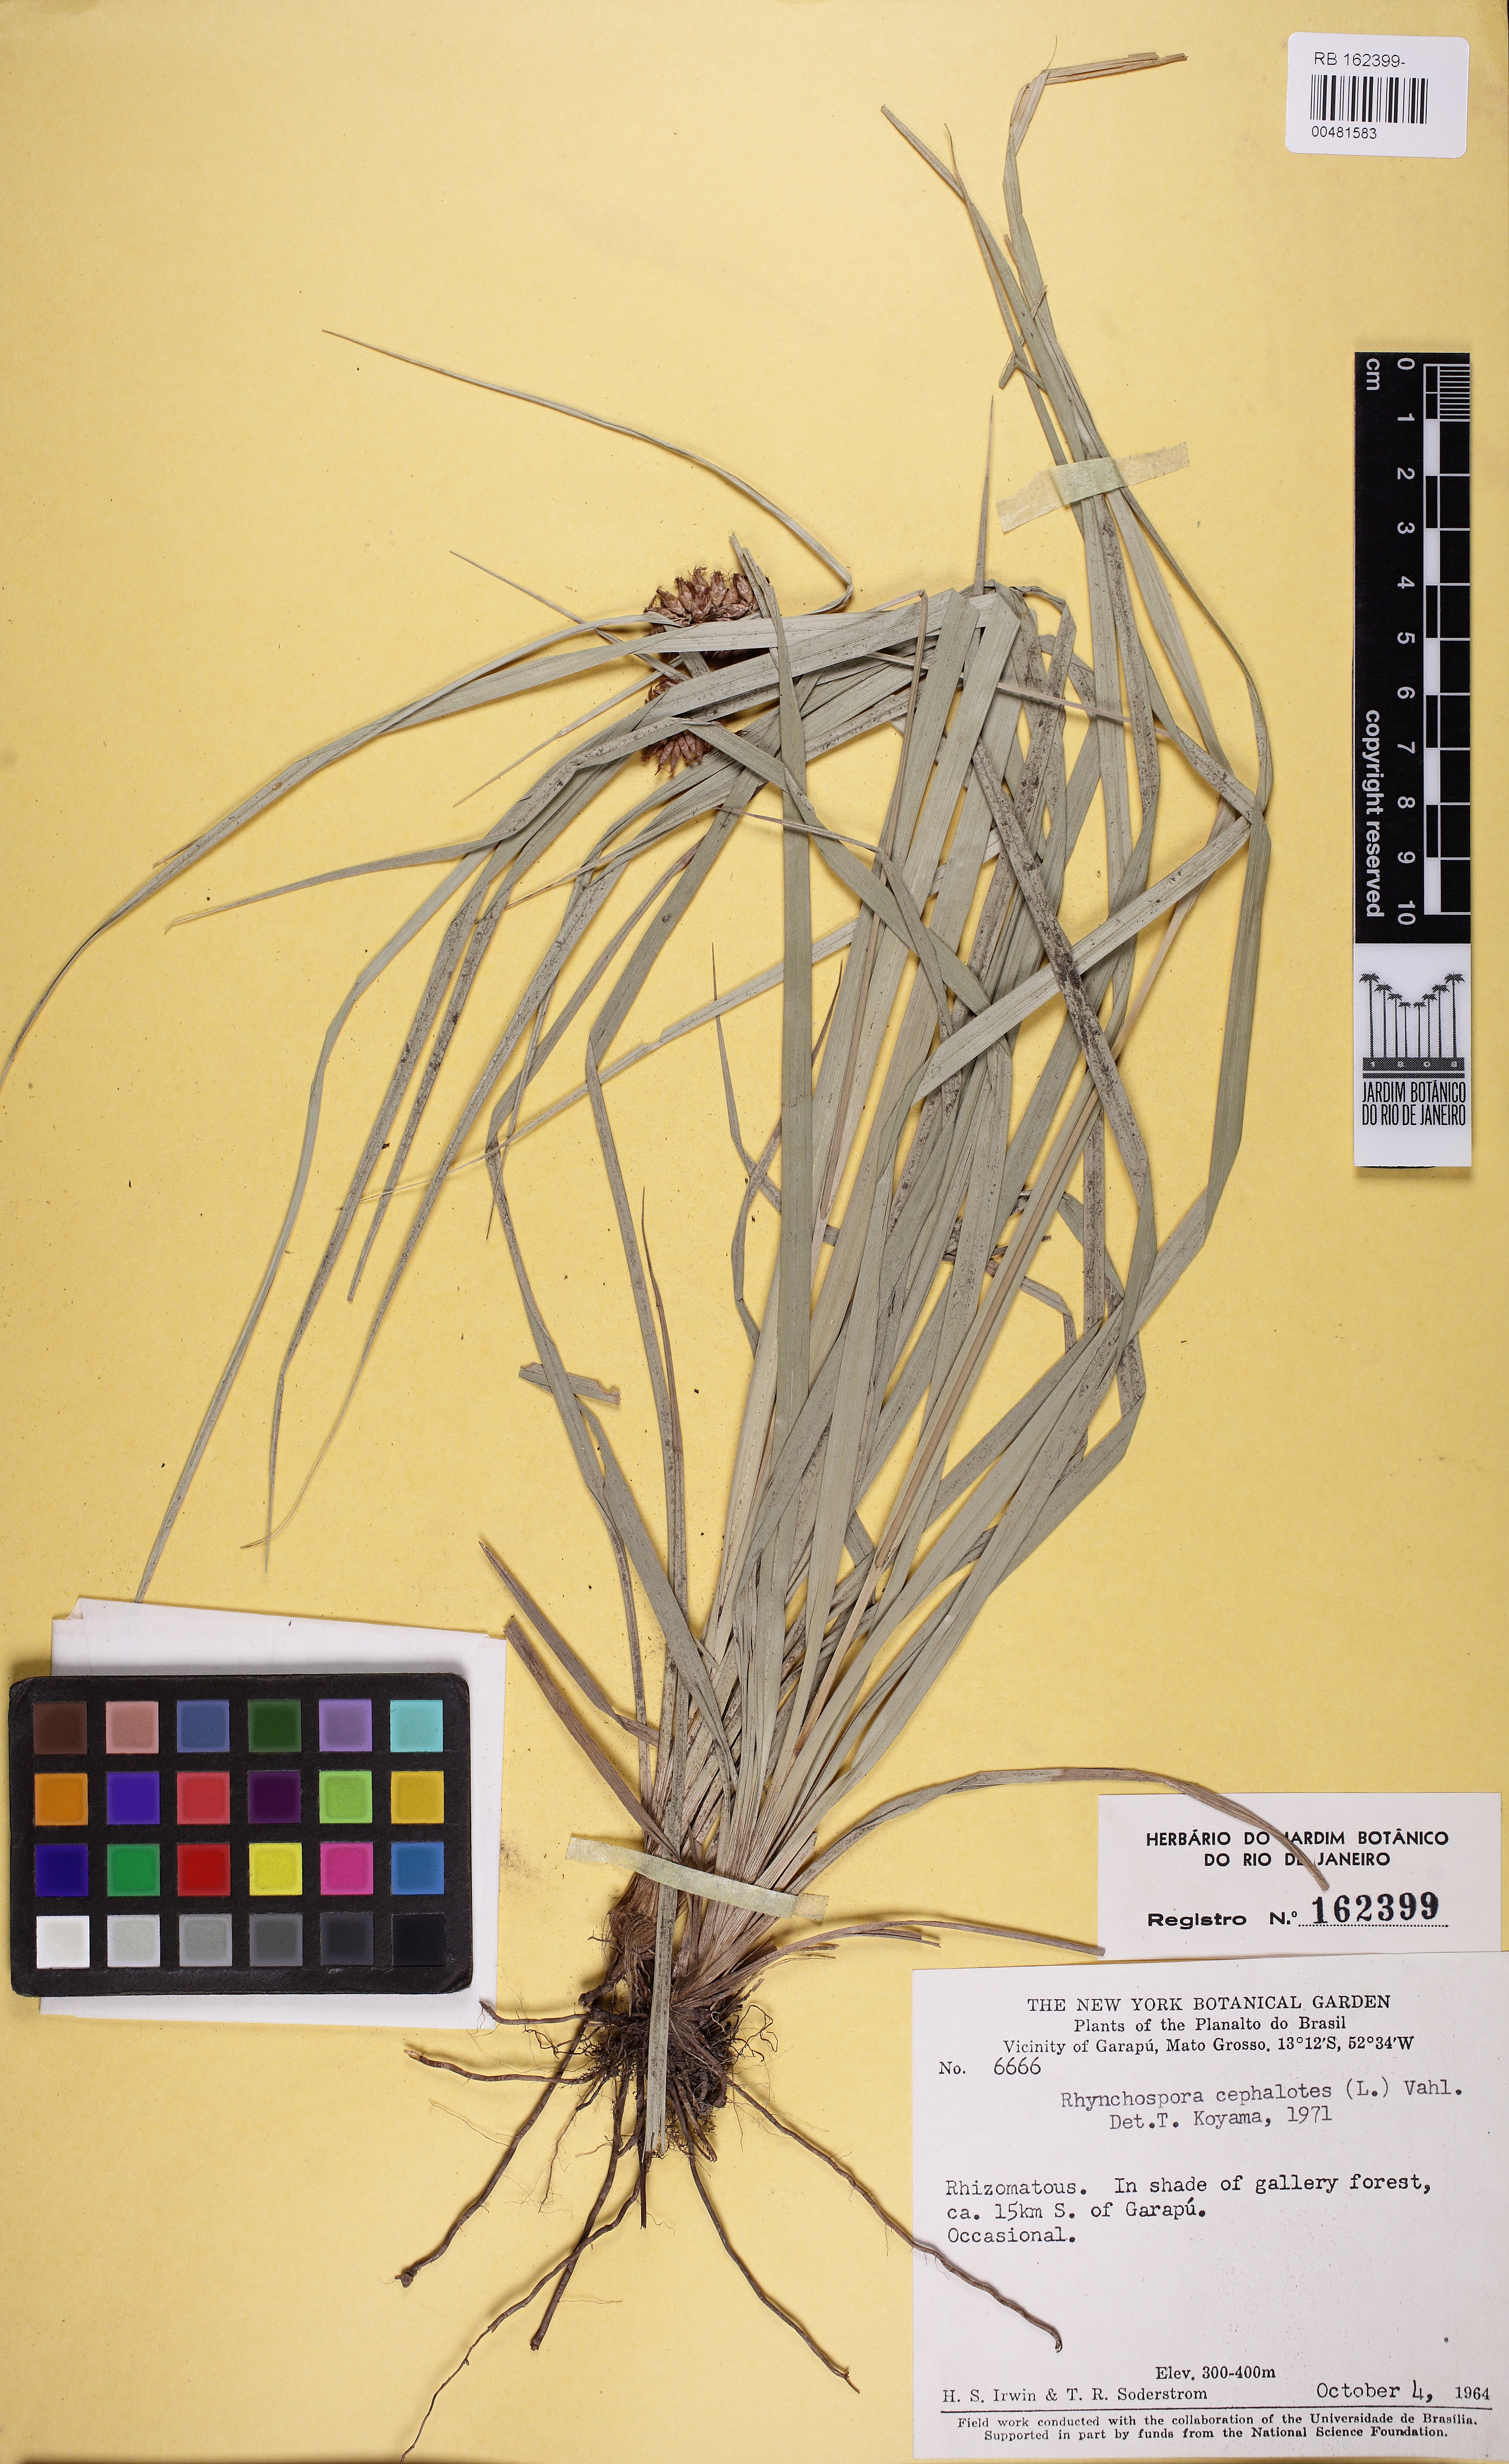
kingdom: Plantae
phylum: Tracheophyta
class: Liliopsida
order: Poales
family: Cyperaceae
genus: Rhynchospora
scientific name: Rhynchospora cephalotes
